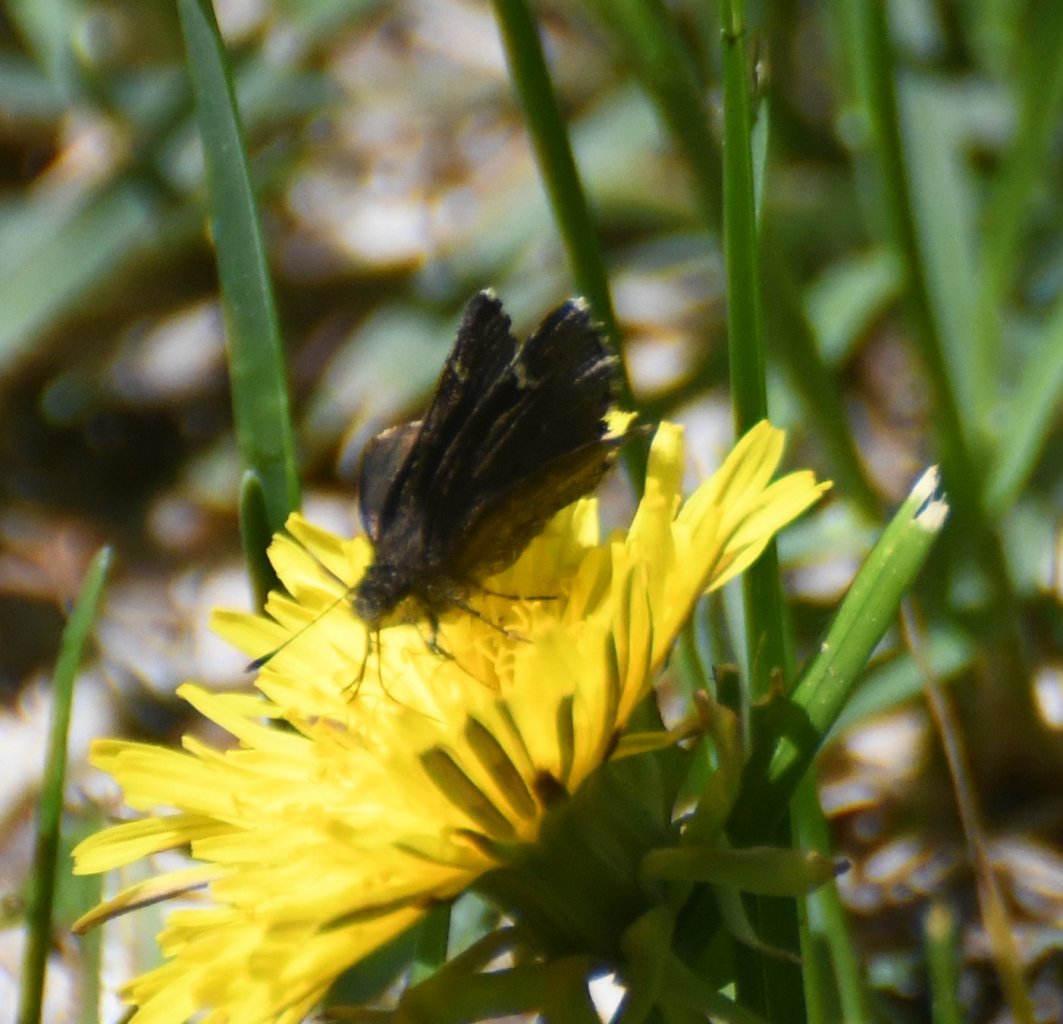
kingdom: Animalia
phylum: Arthropoda
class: Insecta
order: Lepidoptera
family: Hesperiidae
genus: Mastor
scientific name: Mastor vialis
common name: Common Roadside-Skipper
